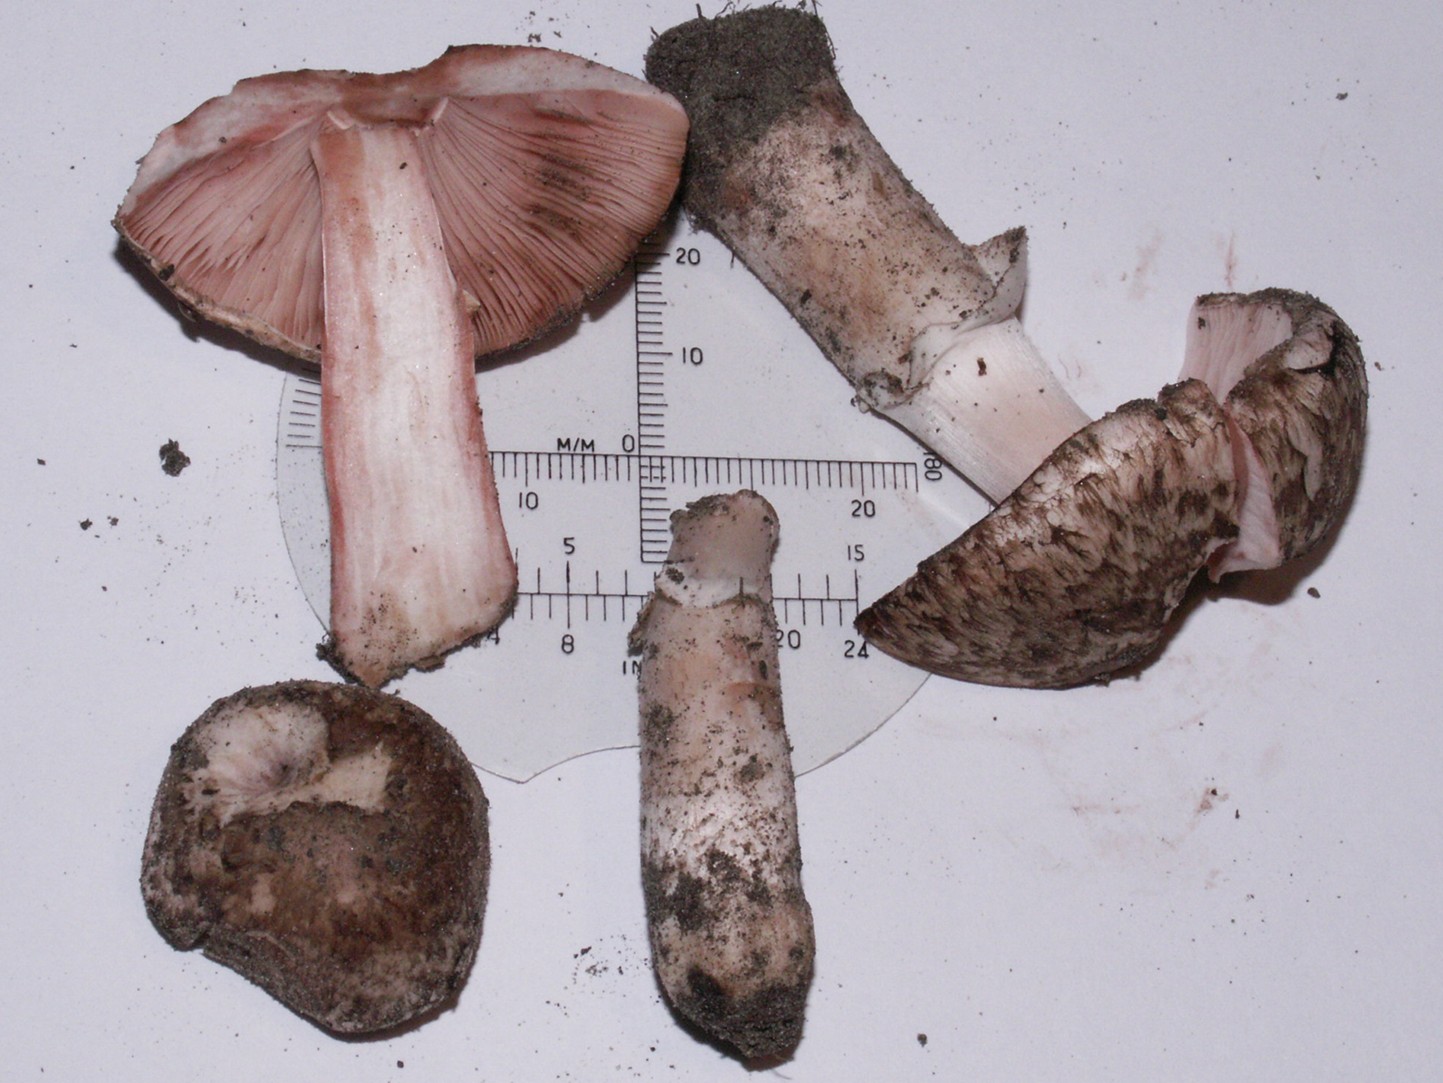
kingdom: Fungi
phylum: Basidiomycota
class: Agaricomycetes
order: Agaricales
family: Agaricaceae
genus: Agaricus
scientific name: Agaricus langei
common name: stor blod-champignon
